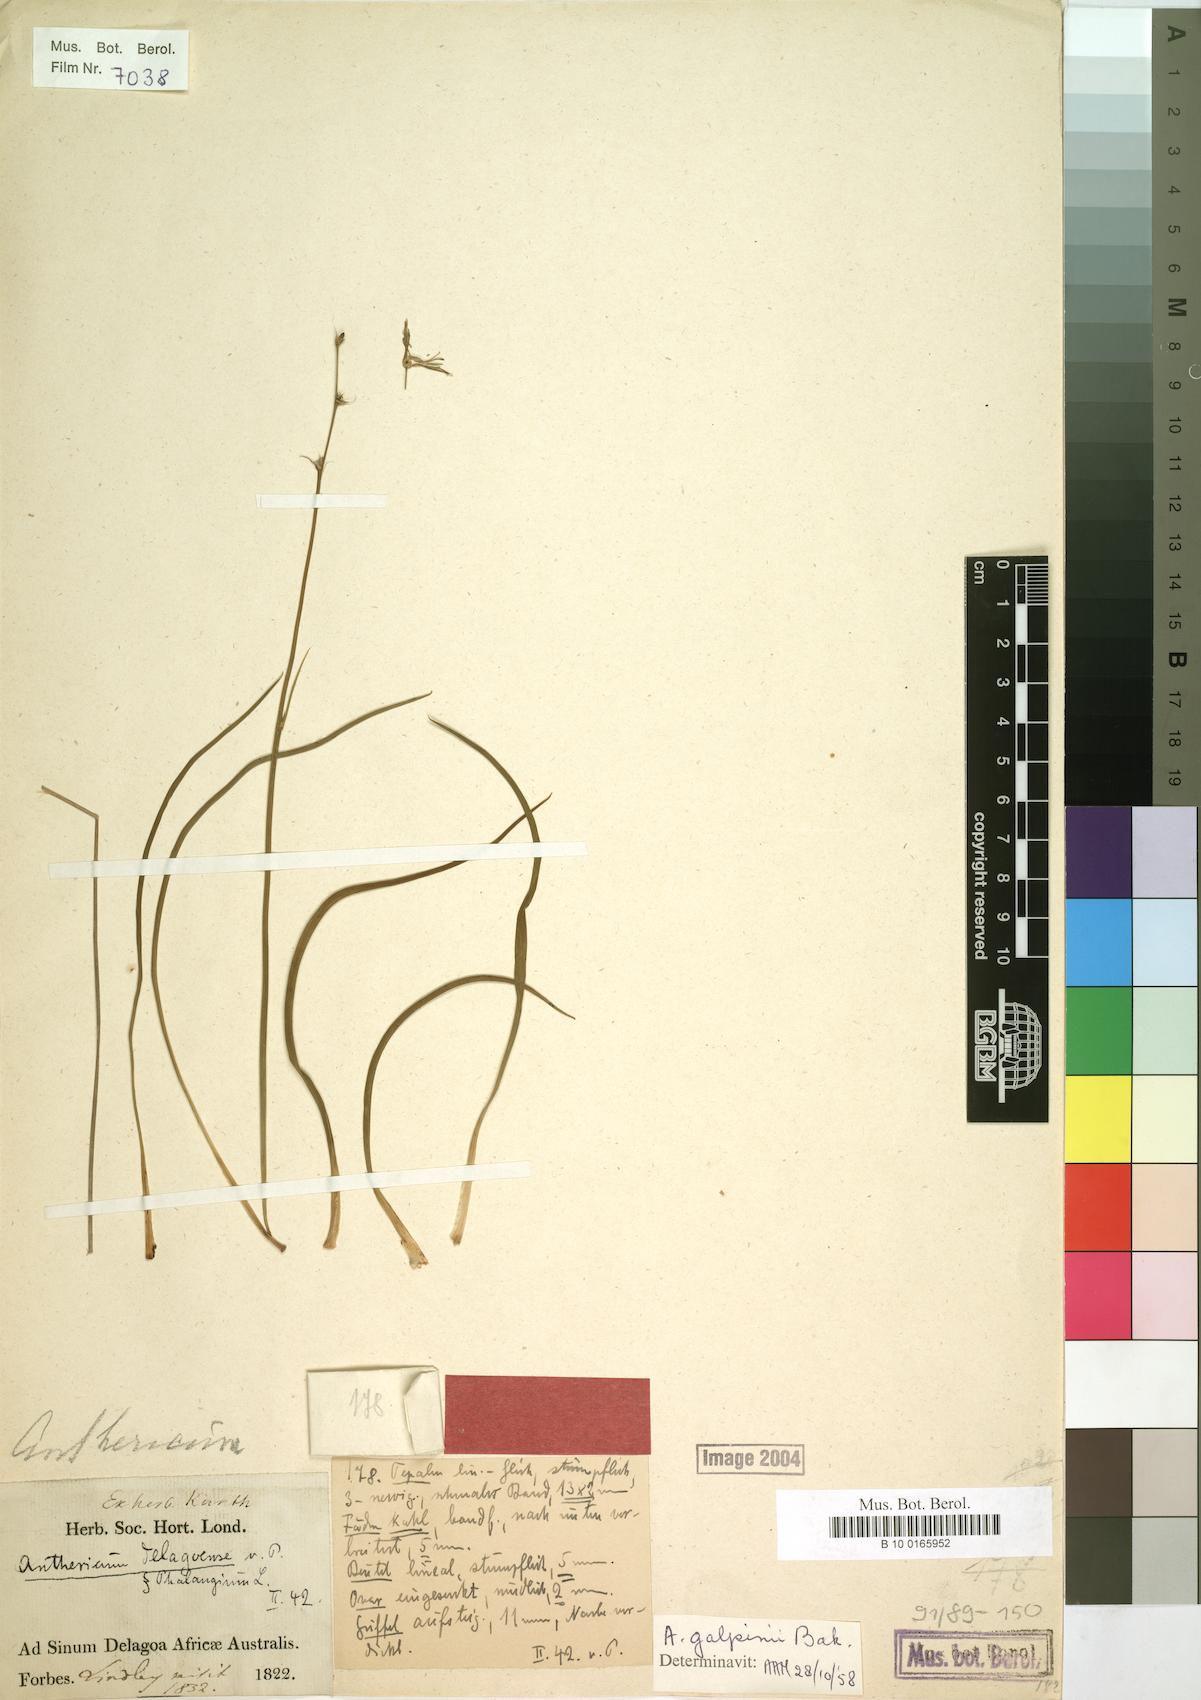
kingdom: Plantae
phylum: Tracheophyta
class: Liliopsida
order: Asparagales
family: Asparagaceae
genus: Chlorophytum
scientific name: Chlorophytum galpinii
